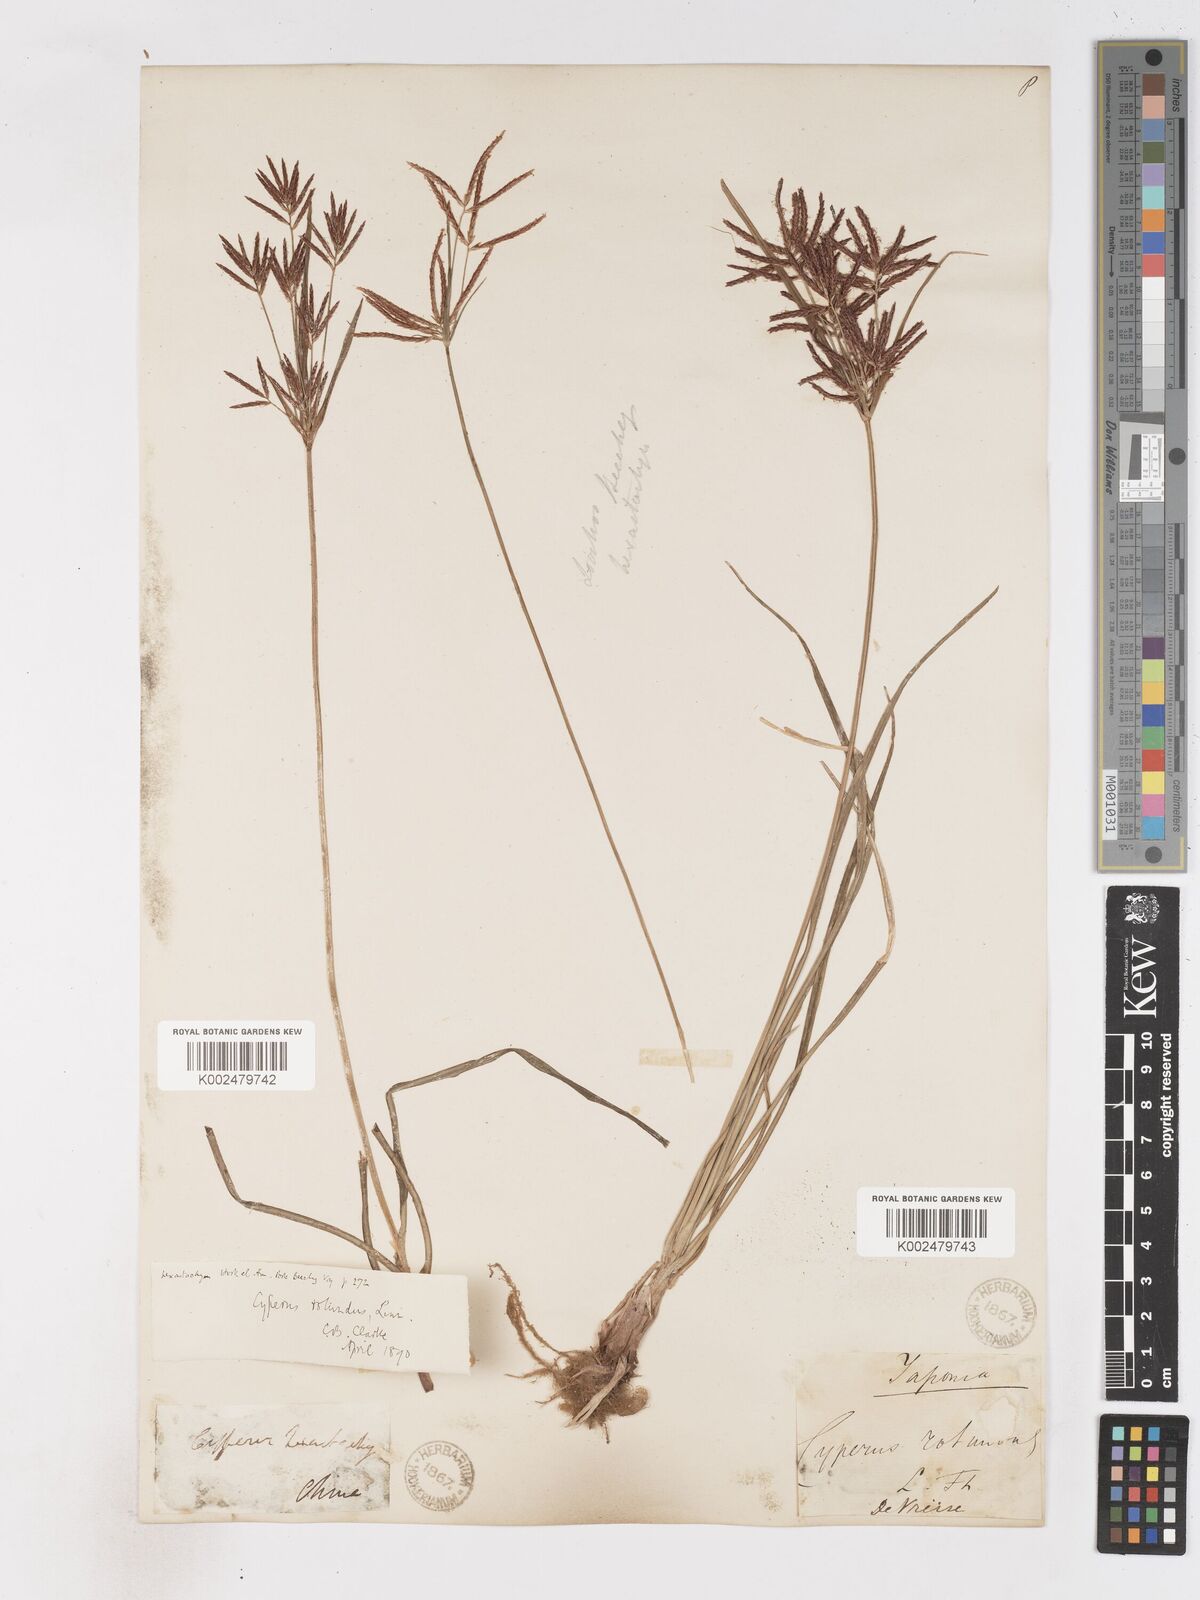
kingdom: Plantae
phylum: Tracheophyta
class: Liliopsida
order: Poales
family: Cyperaceae
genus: Cyperus
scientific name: Cyperus rotundus
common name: Nutgrass
